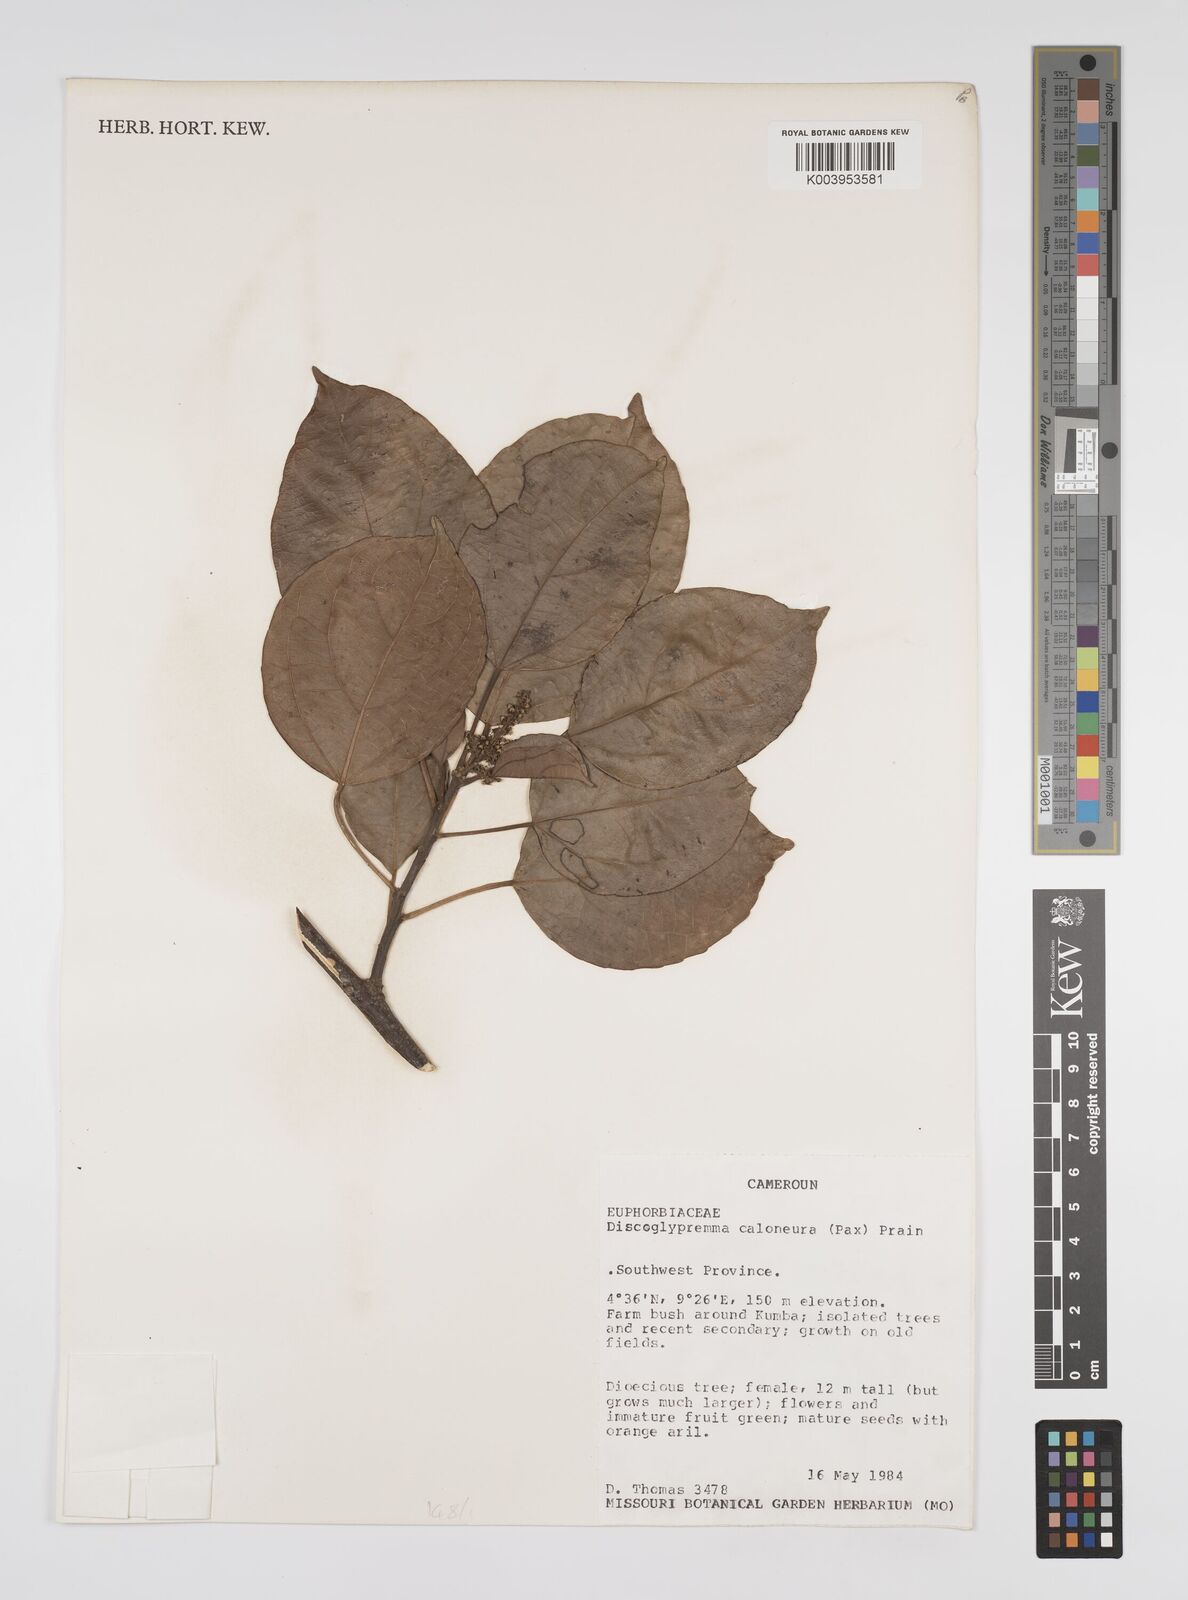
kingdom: Plantae
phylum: Tracheophyta
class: Magnoliopsida
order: Malpighiales
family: Euphorbiaceae
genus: Discoglypremna
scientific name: Discoglypremna caloneura
